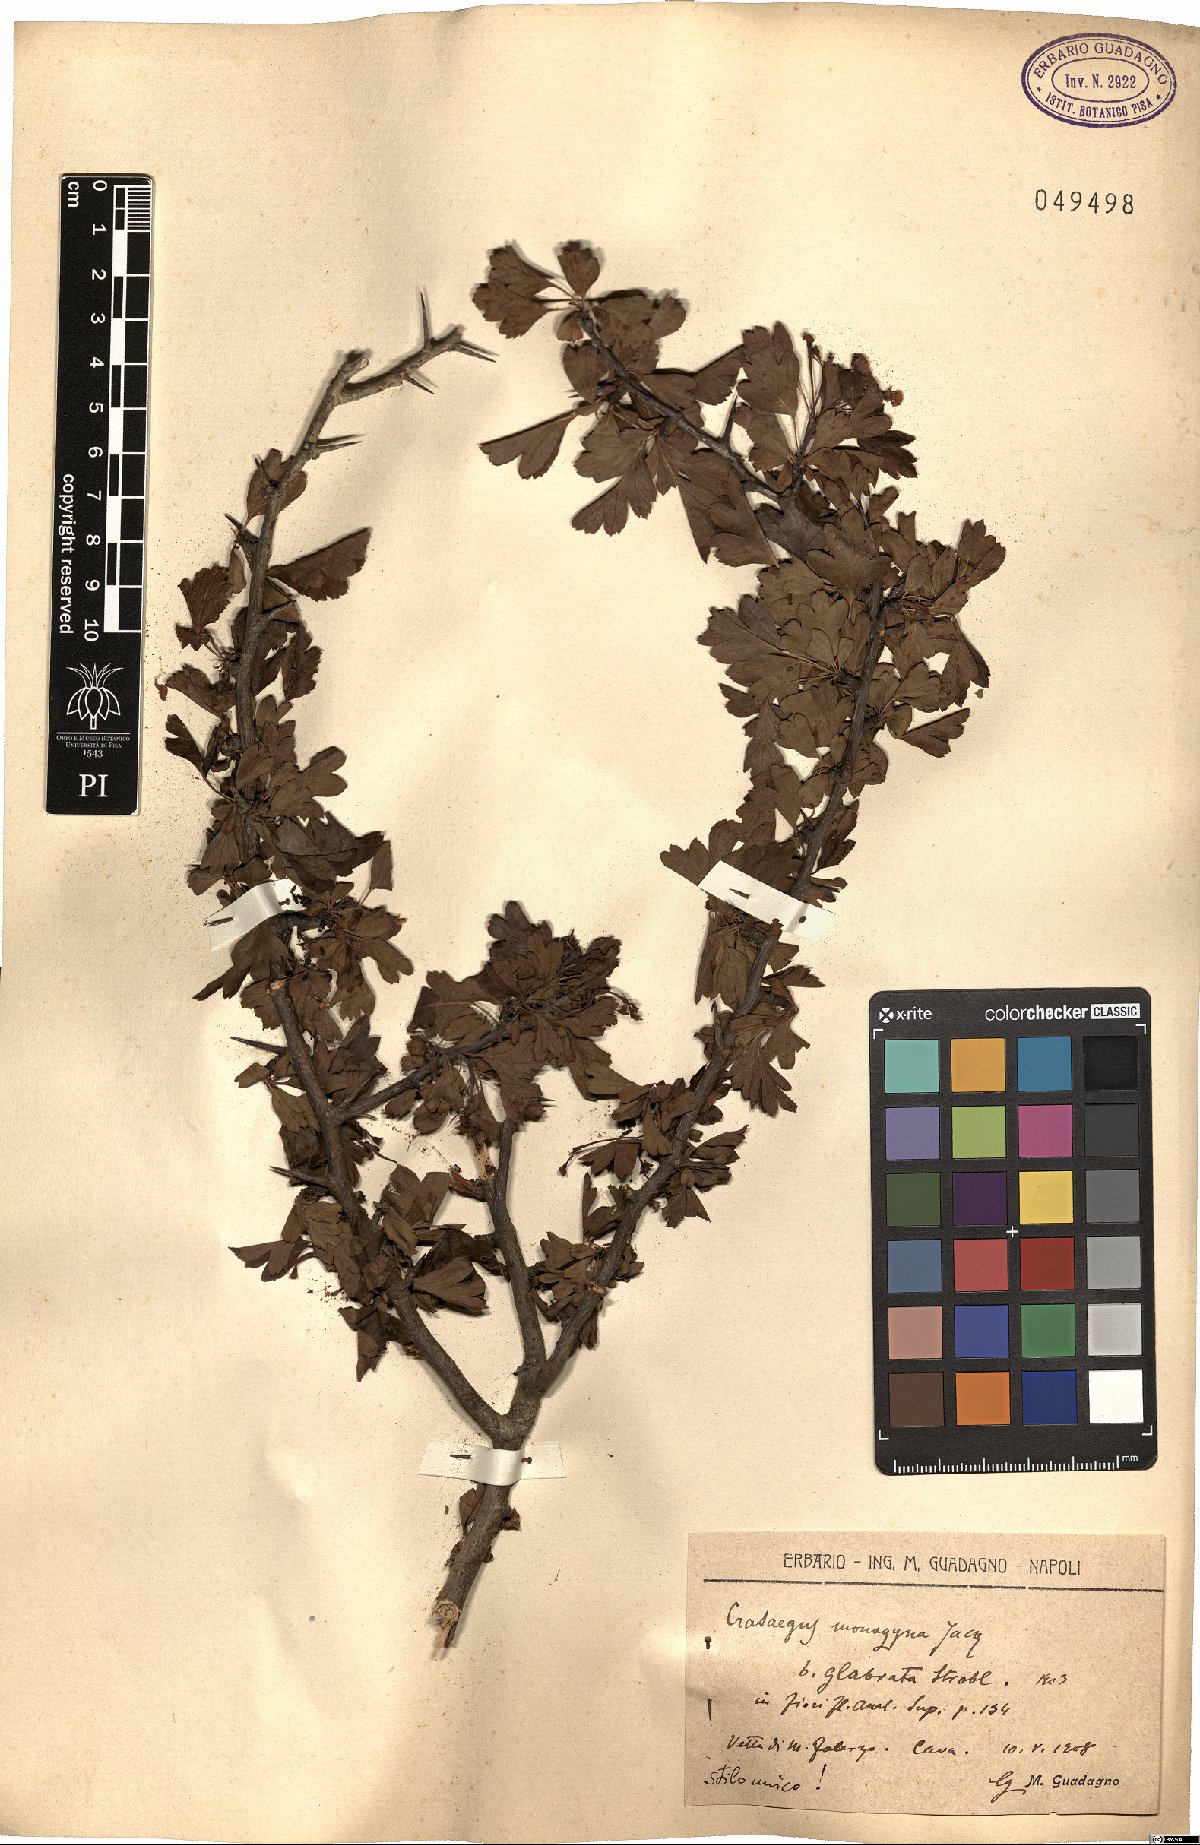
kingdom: Plantae
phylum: Tracheophyta
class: Magnoliopsida
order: Rosales
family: Rosaceae
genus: Crataegus
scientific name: Crataegus monogyna
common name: Hawthorn
